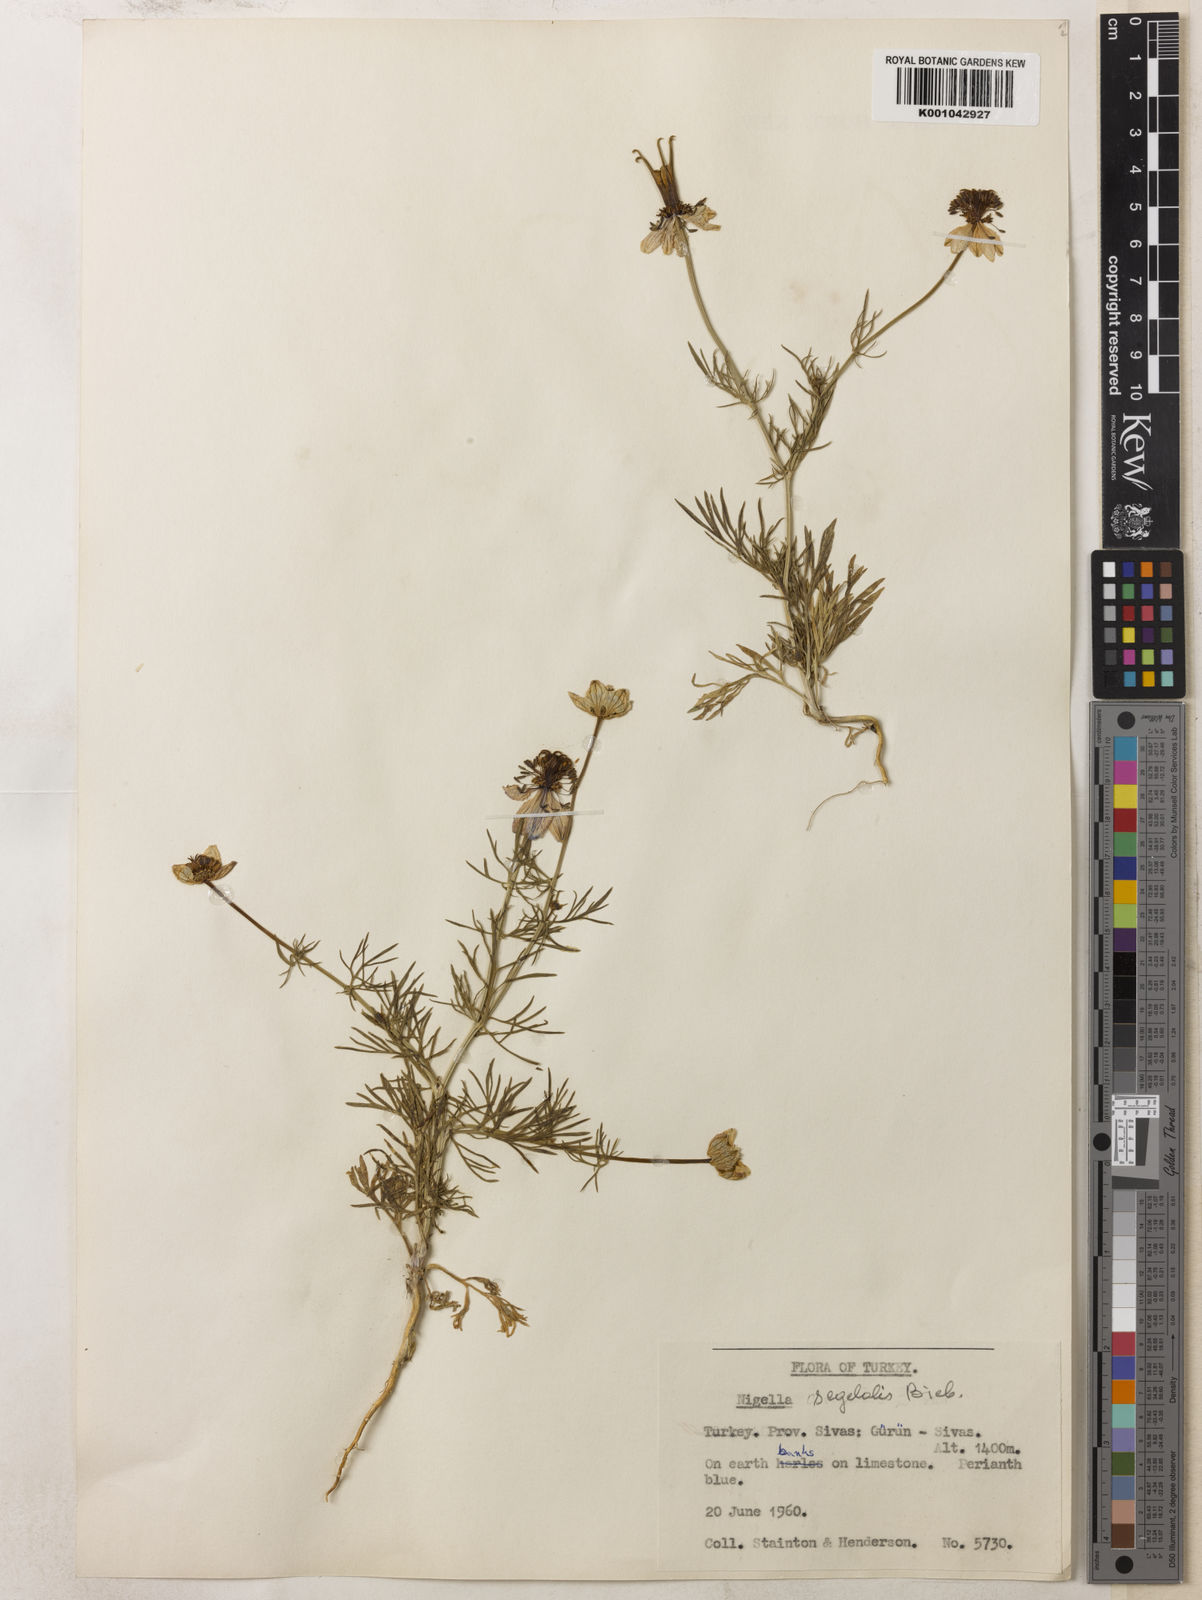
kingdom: Plantae
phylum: Tracheophyta
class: Magnoliopsida
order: Ranunculales
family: Ranunculaceae
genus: Nigella
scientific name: Nigella segetalis
